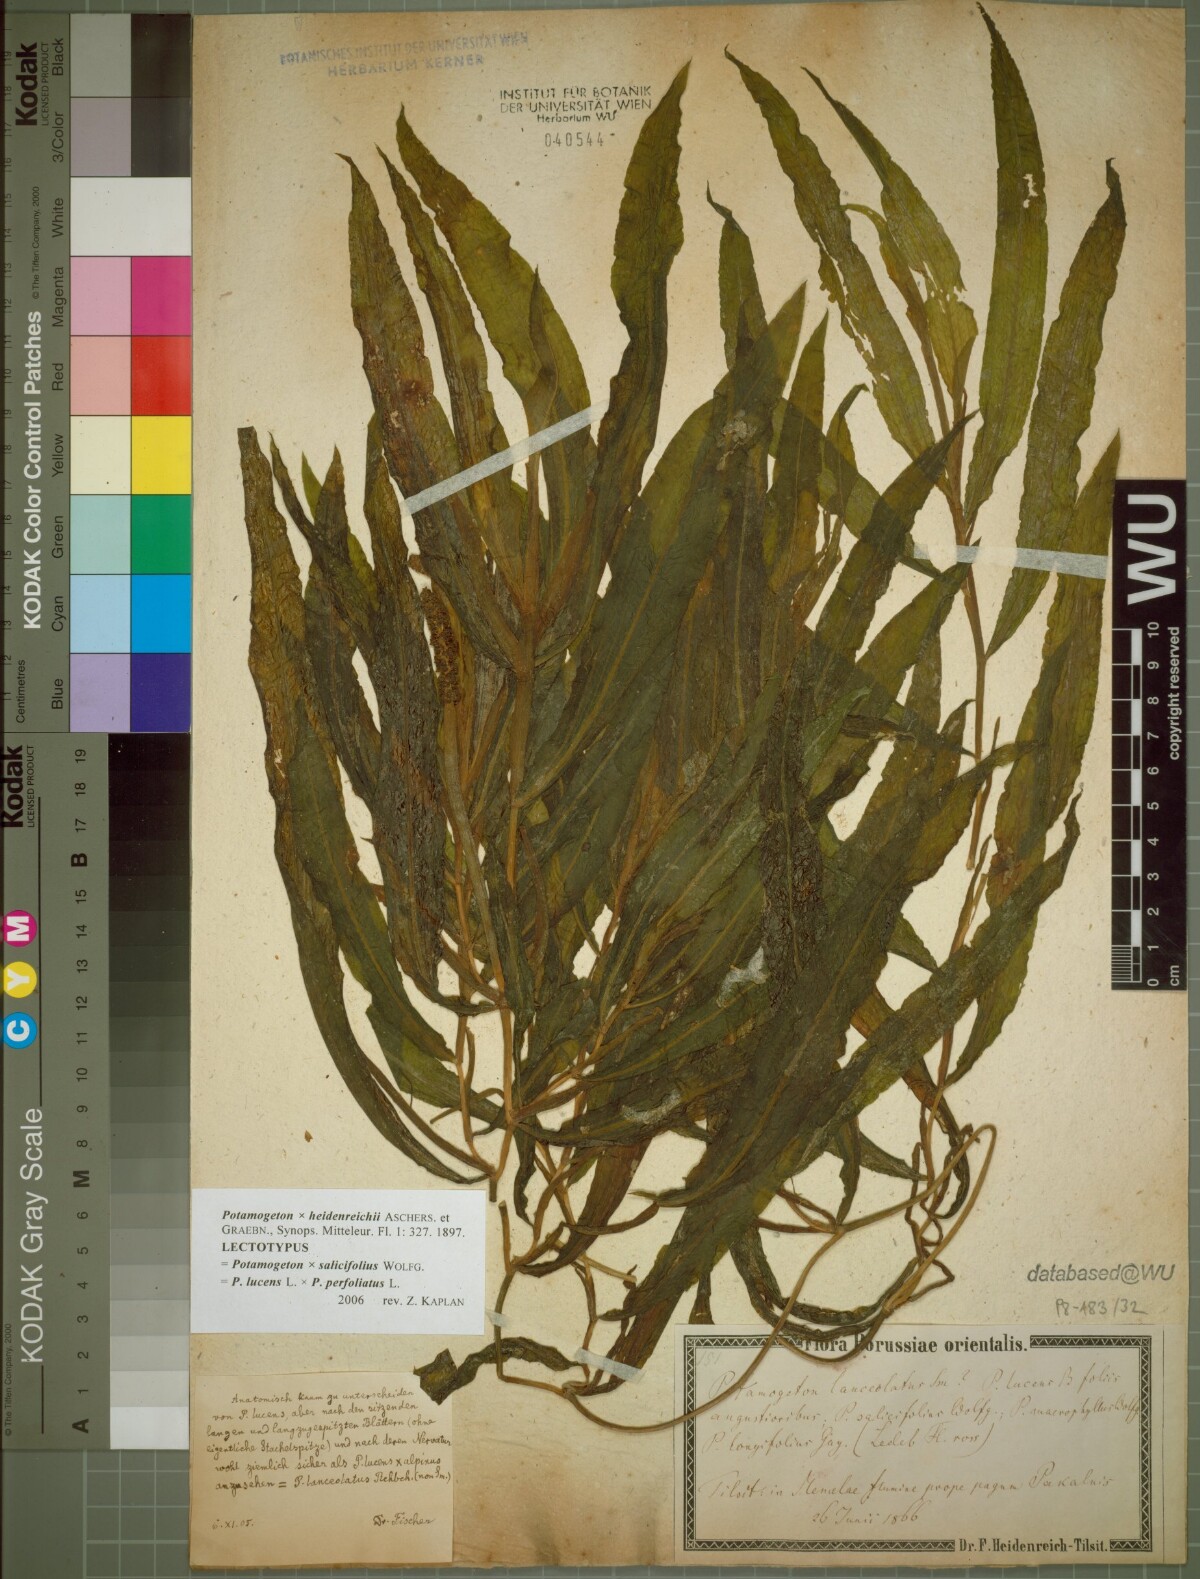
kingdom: Plantae
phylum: Tracheophyta
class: Liliopsida
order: Alismatales
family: Potamogetonaceae
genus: Potamogeton
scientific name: Potamogeton angustifolius
